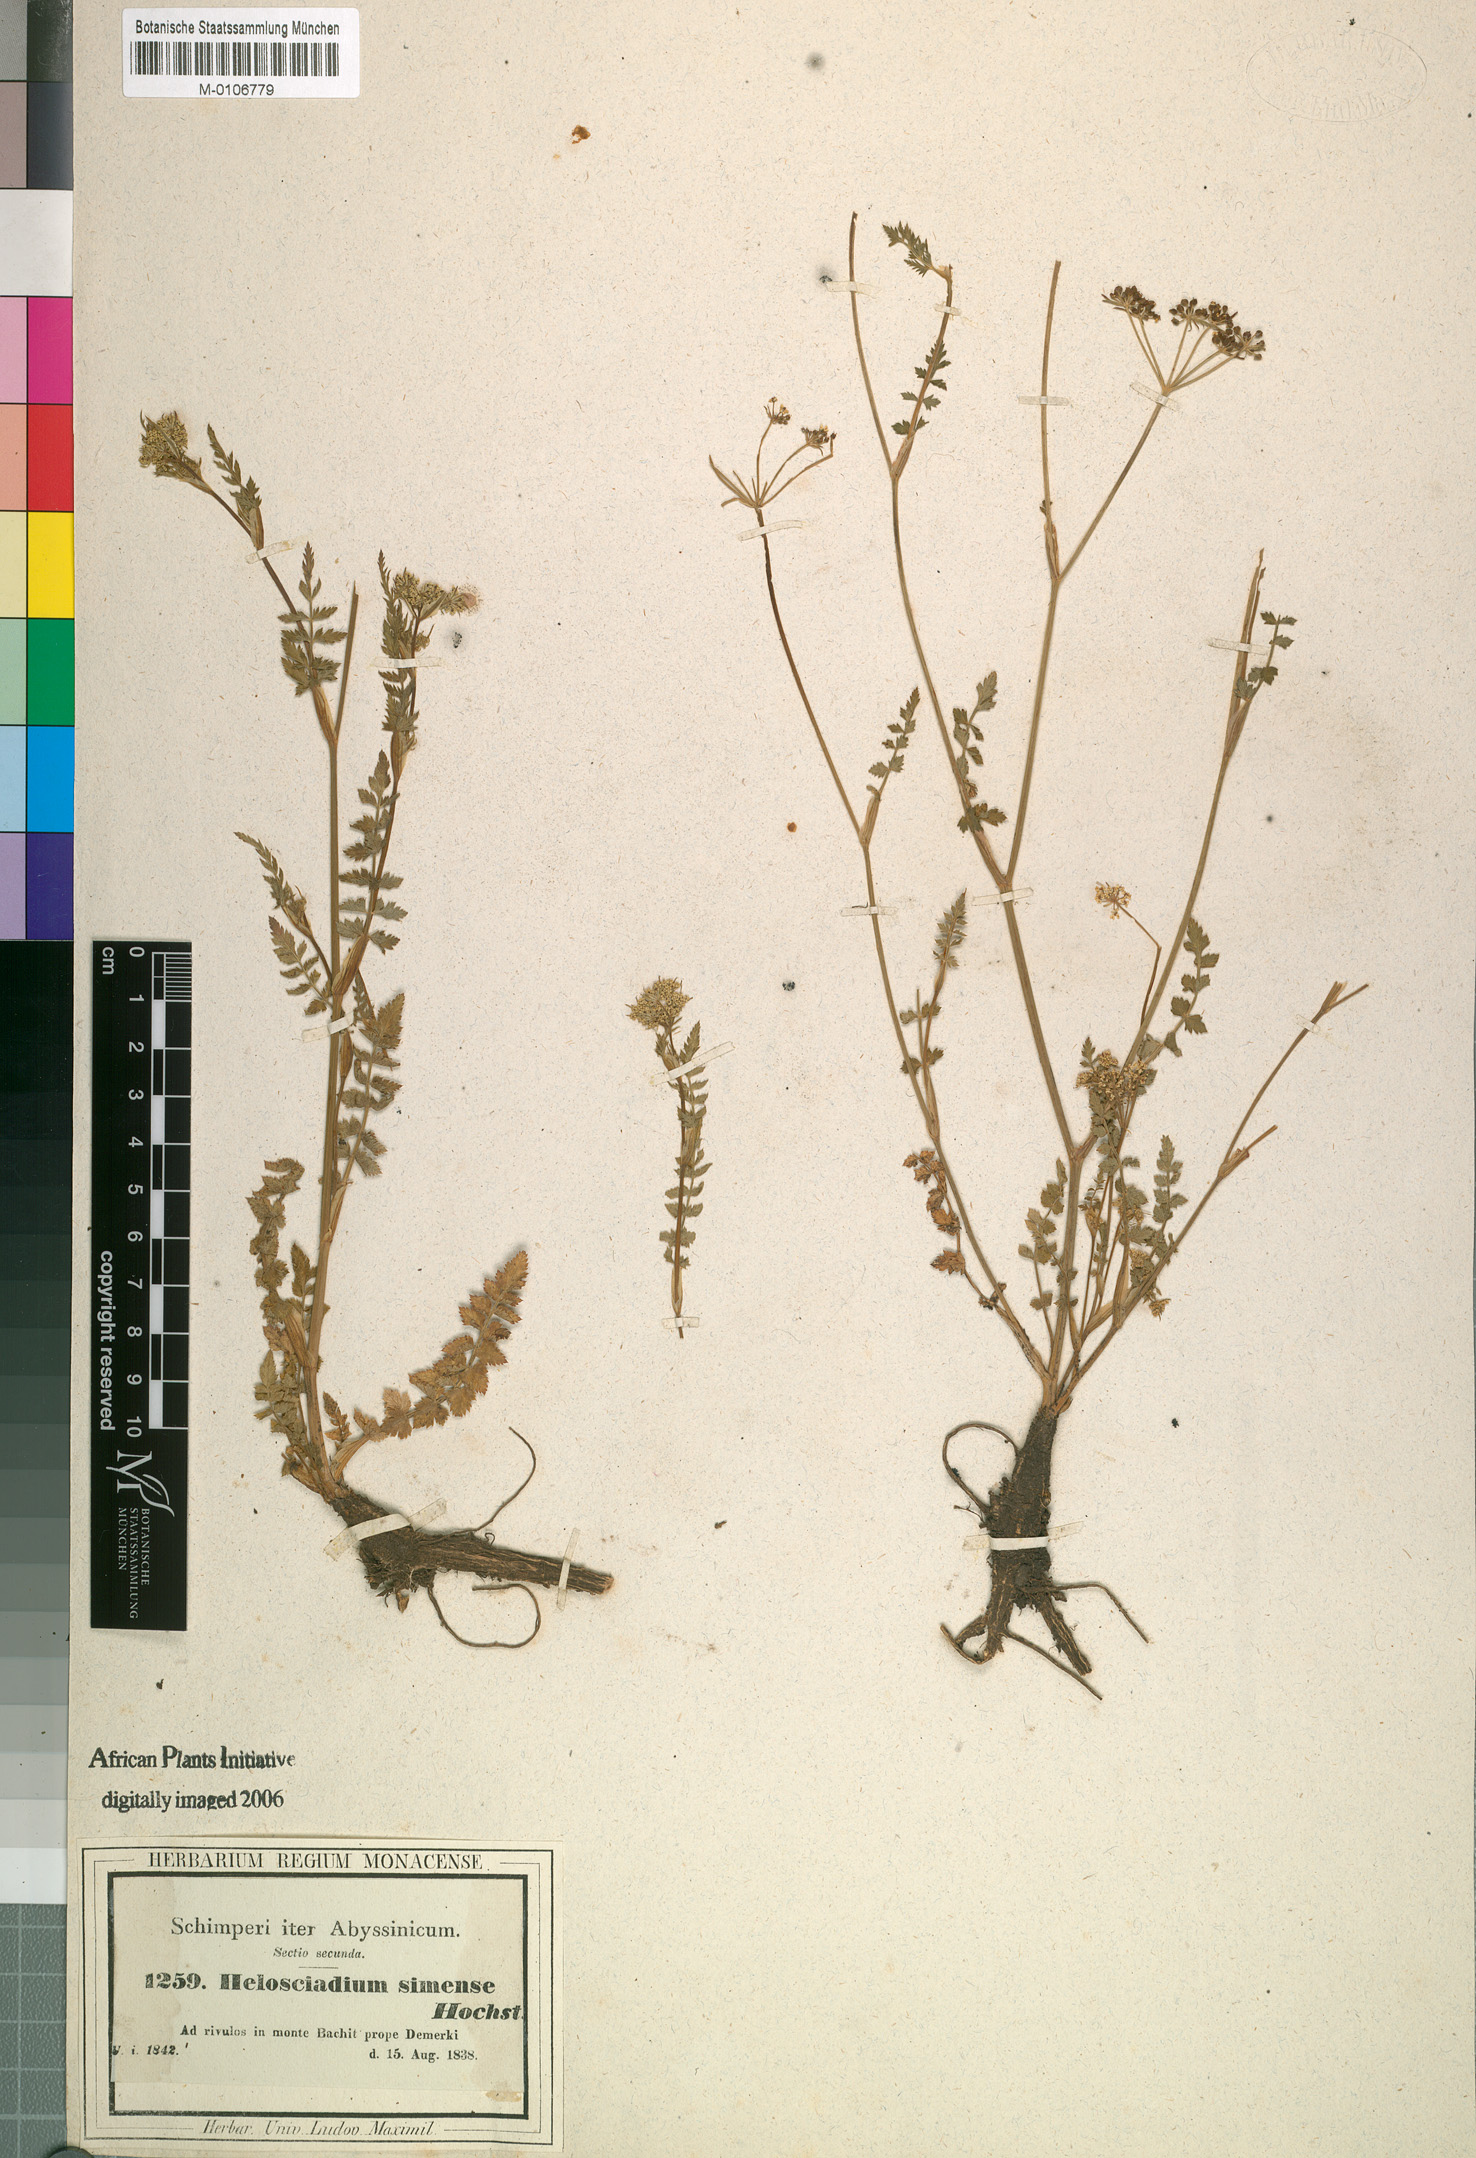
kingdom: Plantae
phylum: Tracheophyta
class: Magnoliopsida
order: Apiales
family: Apiaceae
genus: Oreoschimperella
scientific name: Oreoschimperella verrucosa
